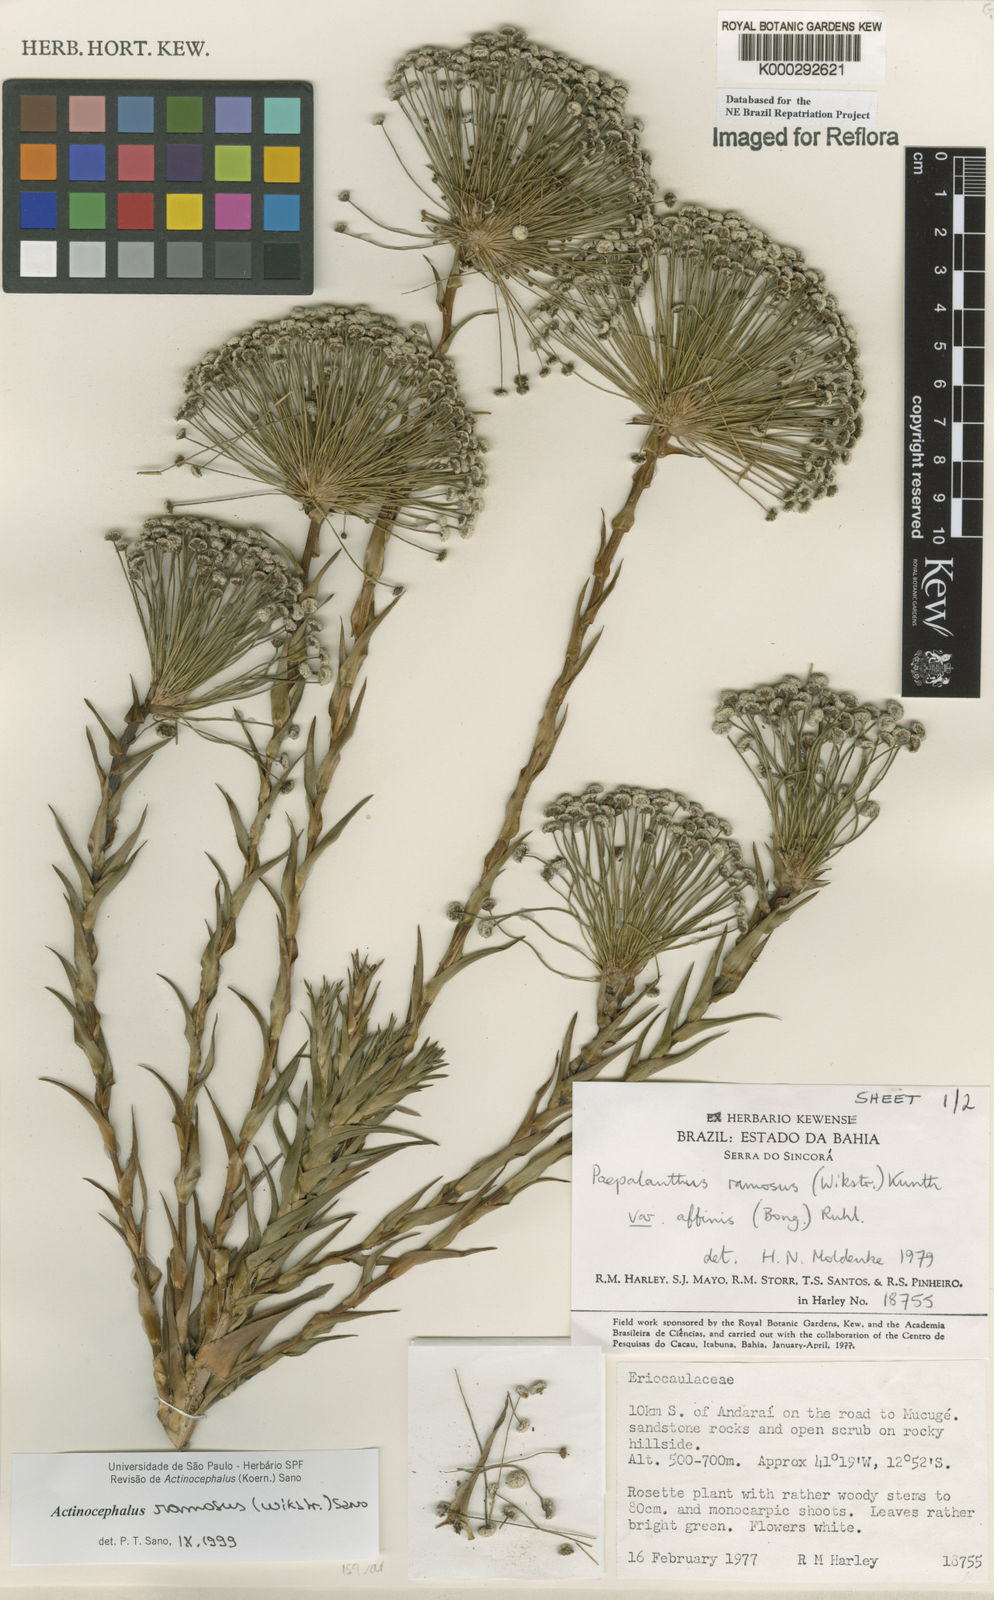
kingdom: Plantae
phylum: Tracheophyta
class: Liliopsida
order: Poales
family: Eriocaulaceae
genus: Paepalanthus
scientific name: Paepalanthus ramosus
